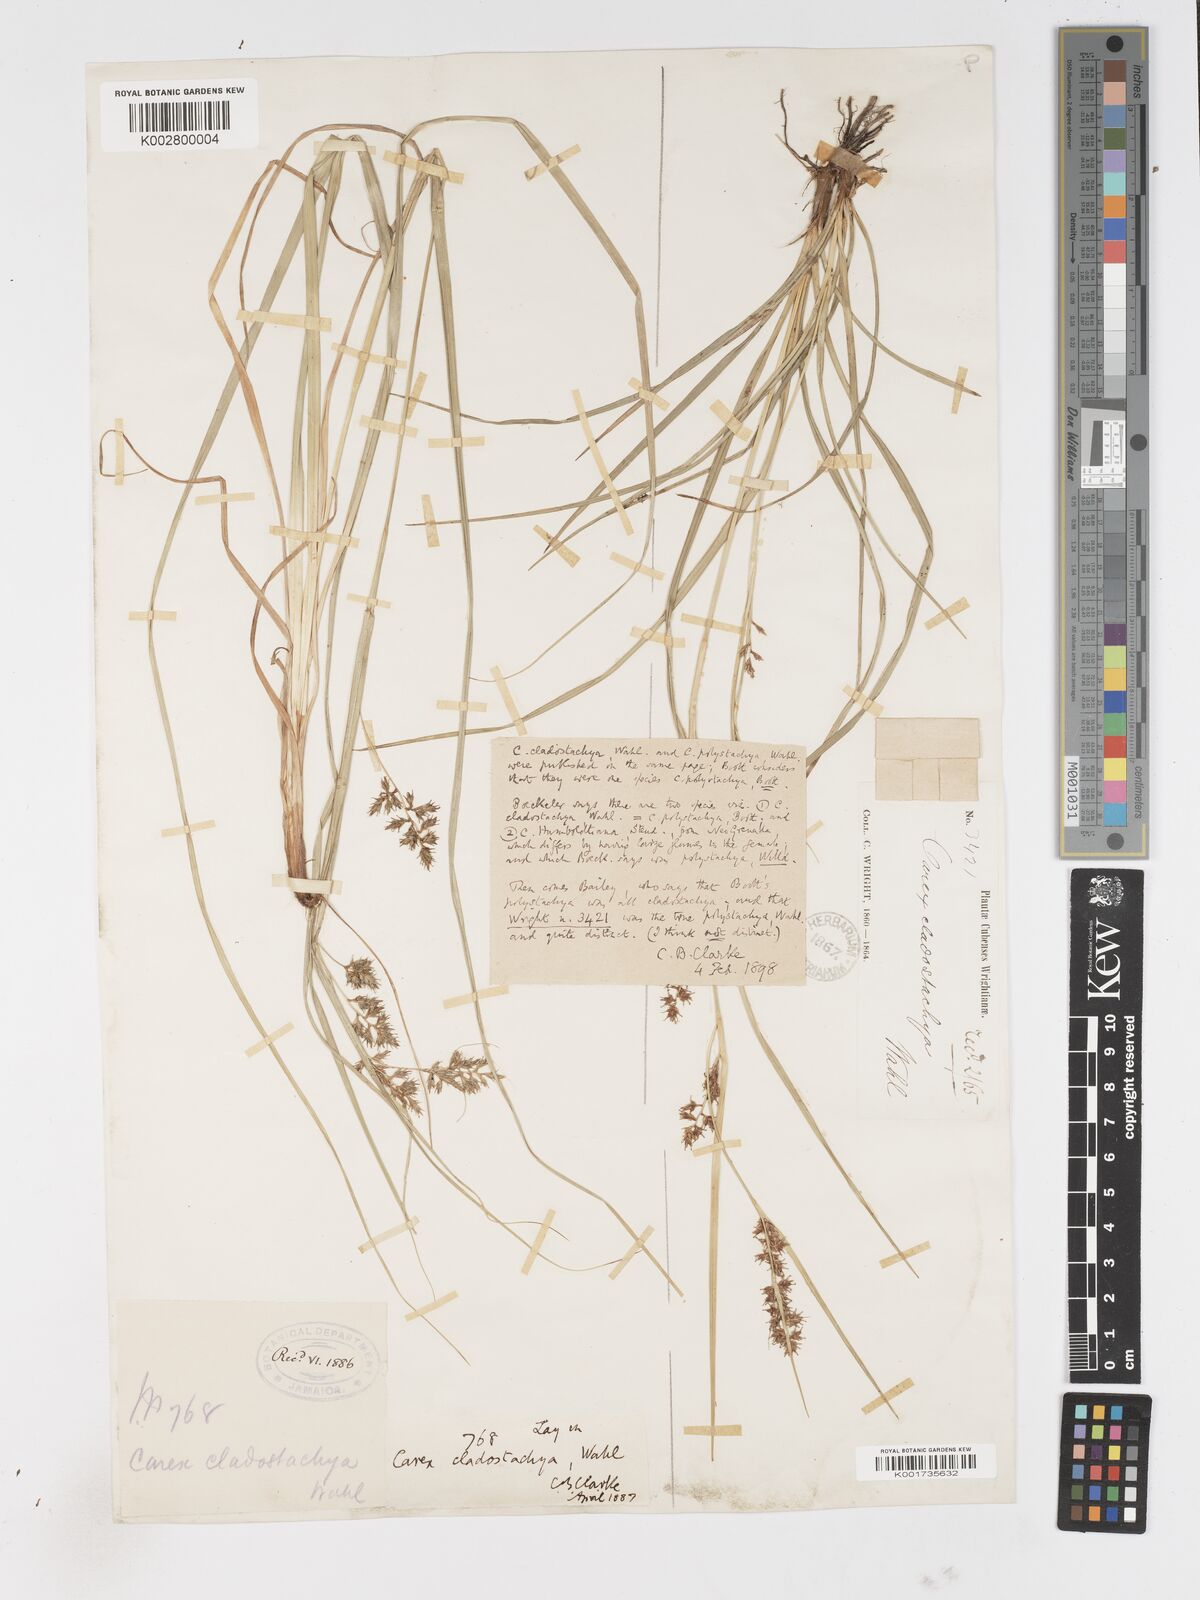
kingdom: Plantae
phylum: Tracheophyta
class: Liliopsida
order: Poales
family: Cyperaceae
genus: Carex
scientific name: Carex polystachya
